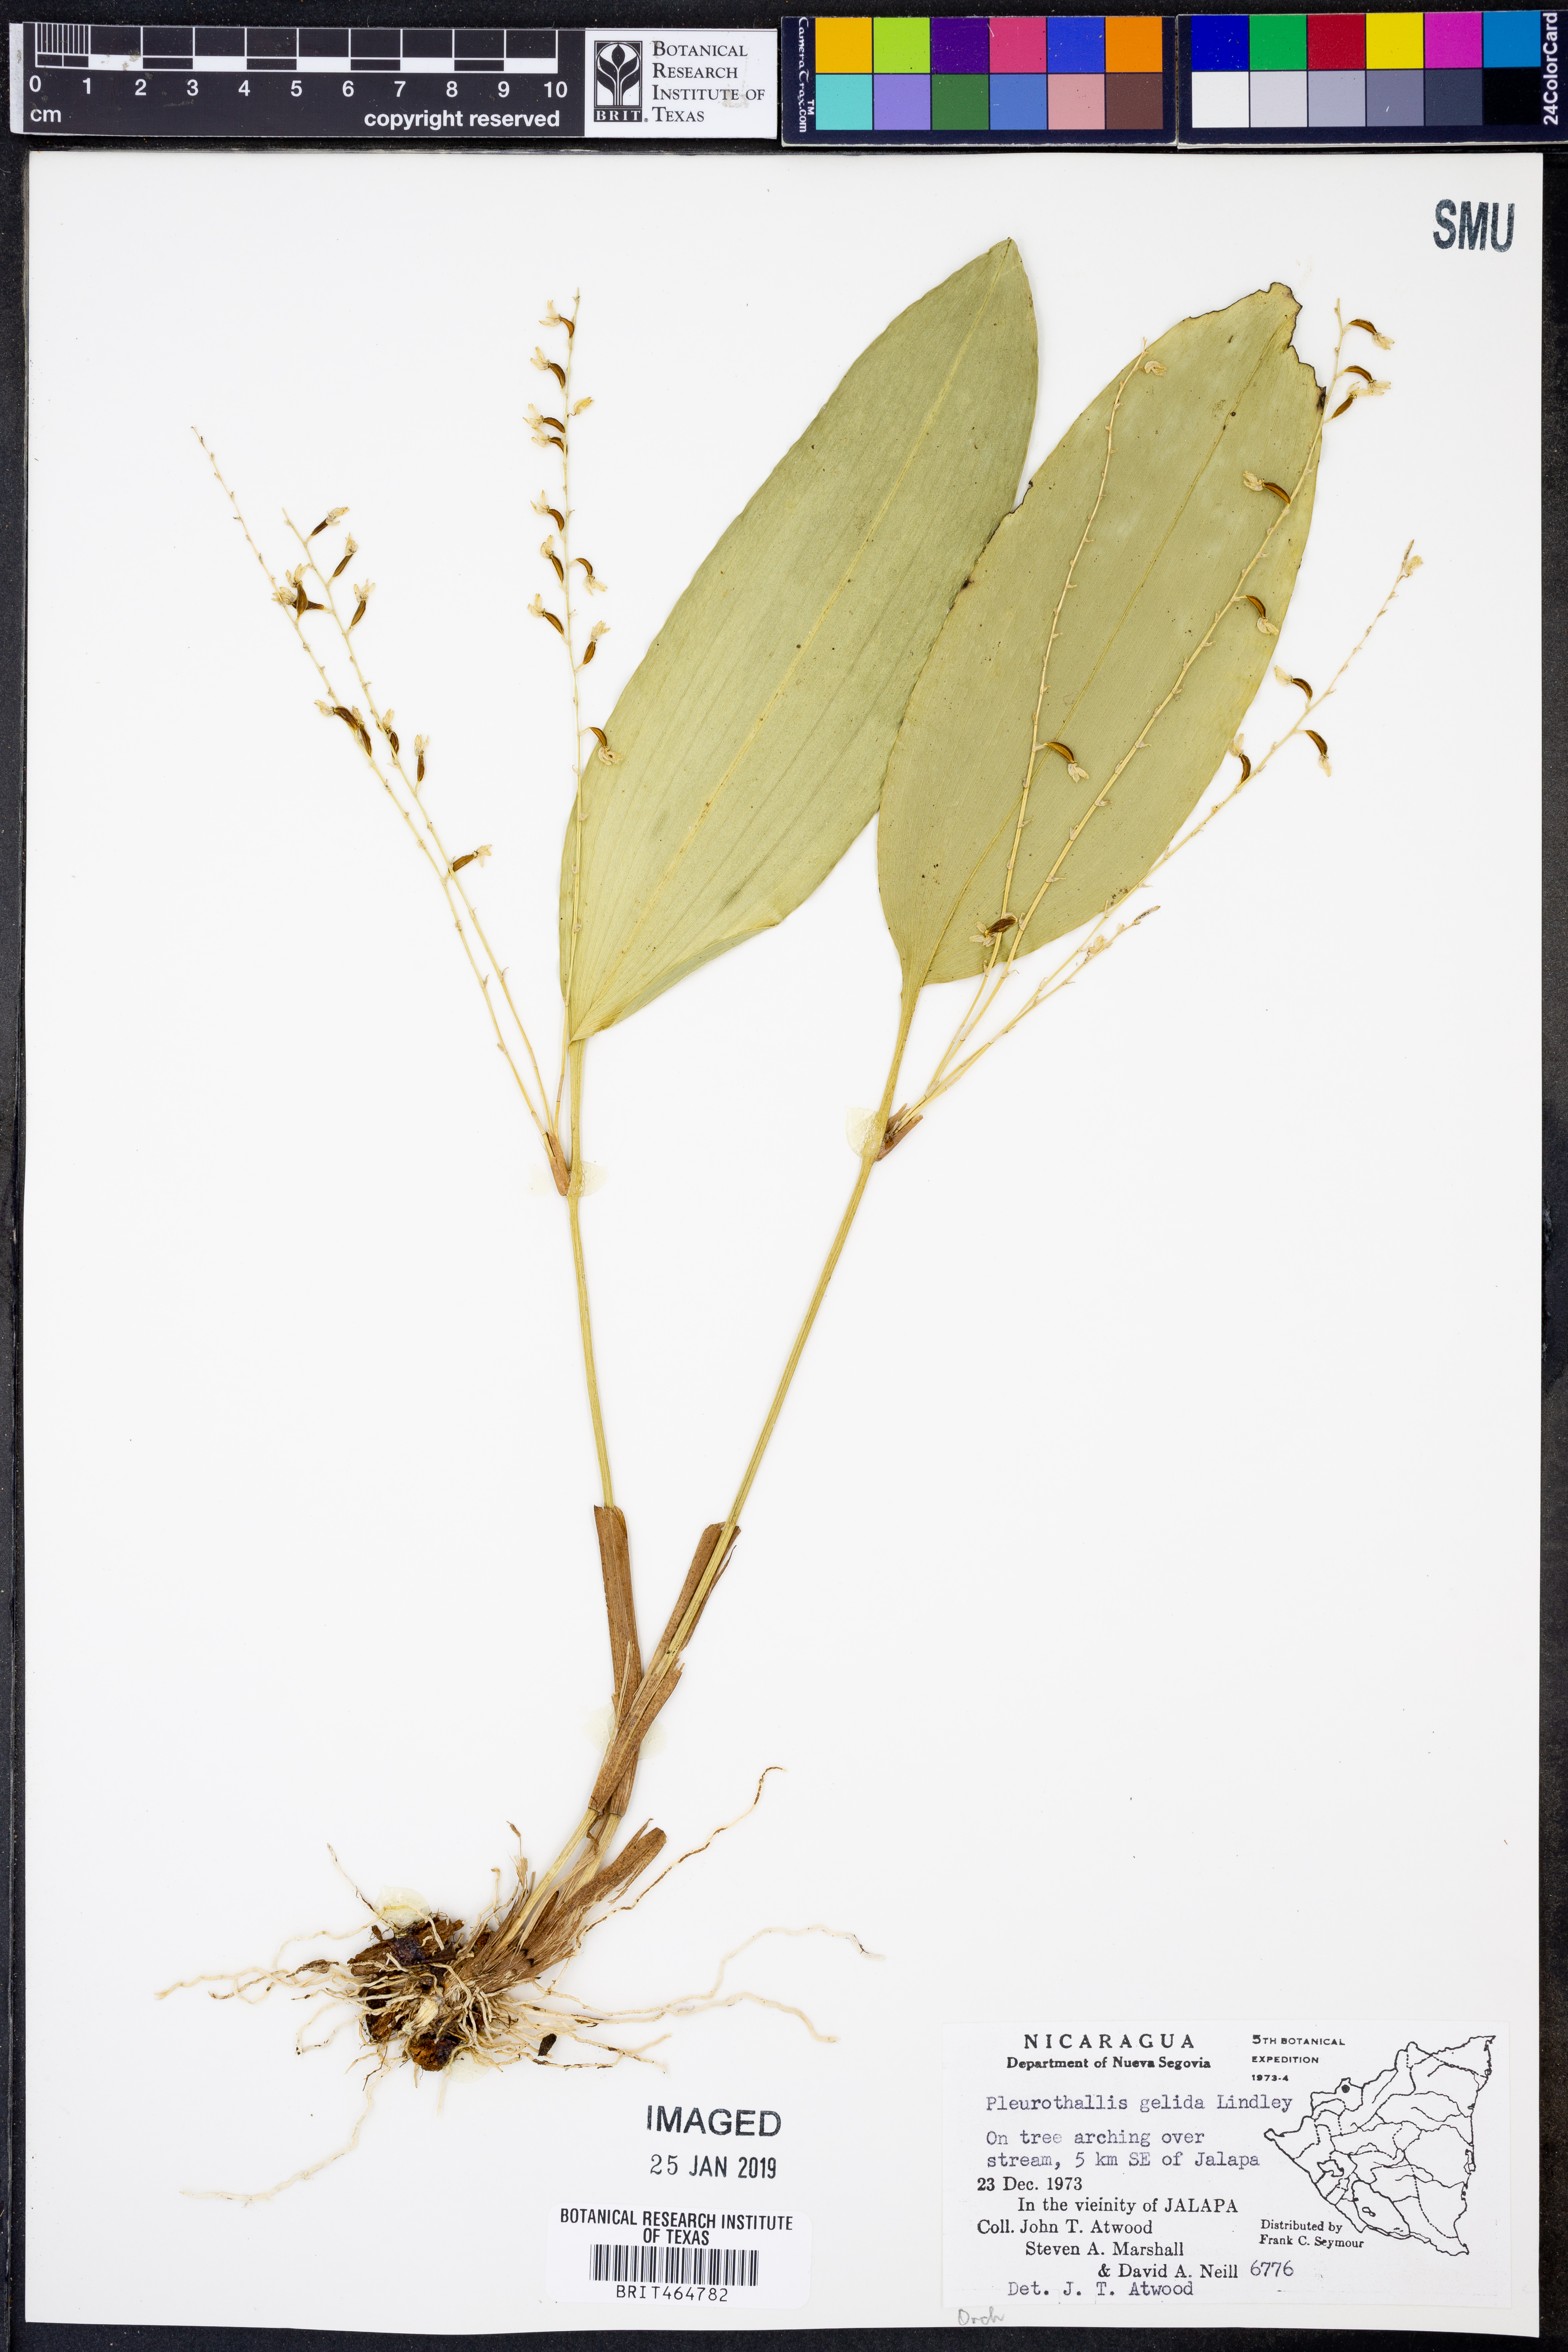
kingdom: Plantae
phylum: Tracheophyta
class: Liliopsida
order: Asparagales
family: Orchidaceae
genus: Stelis
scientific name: Stelis gelida
